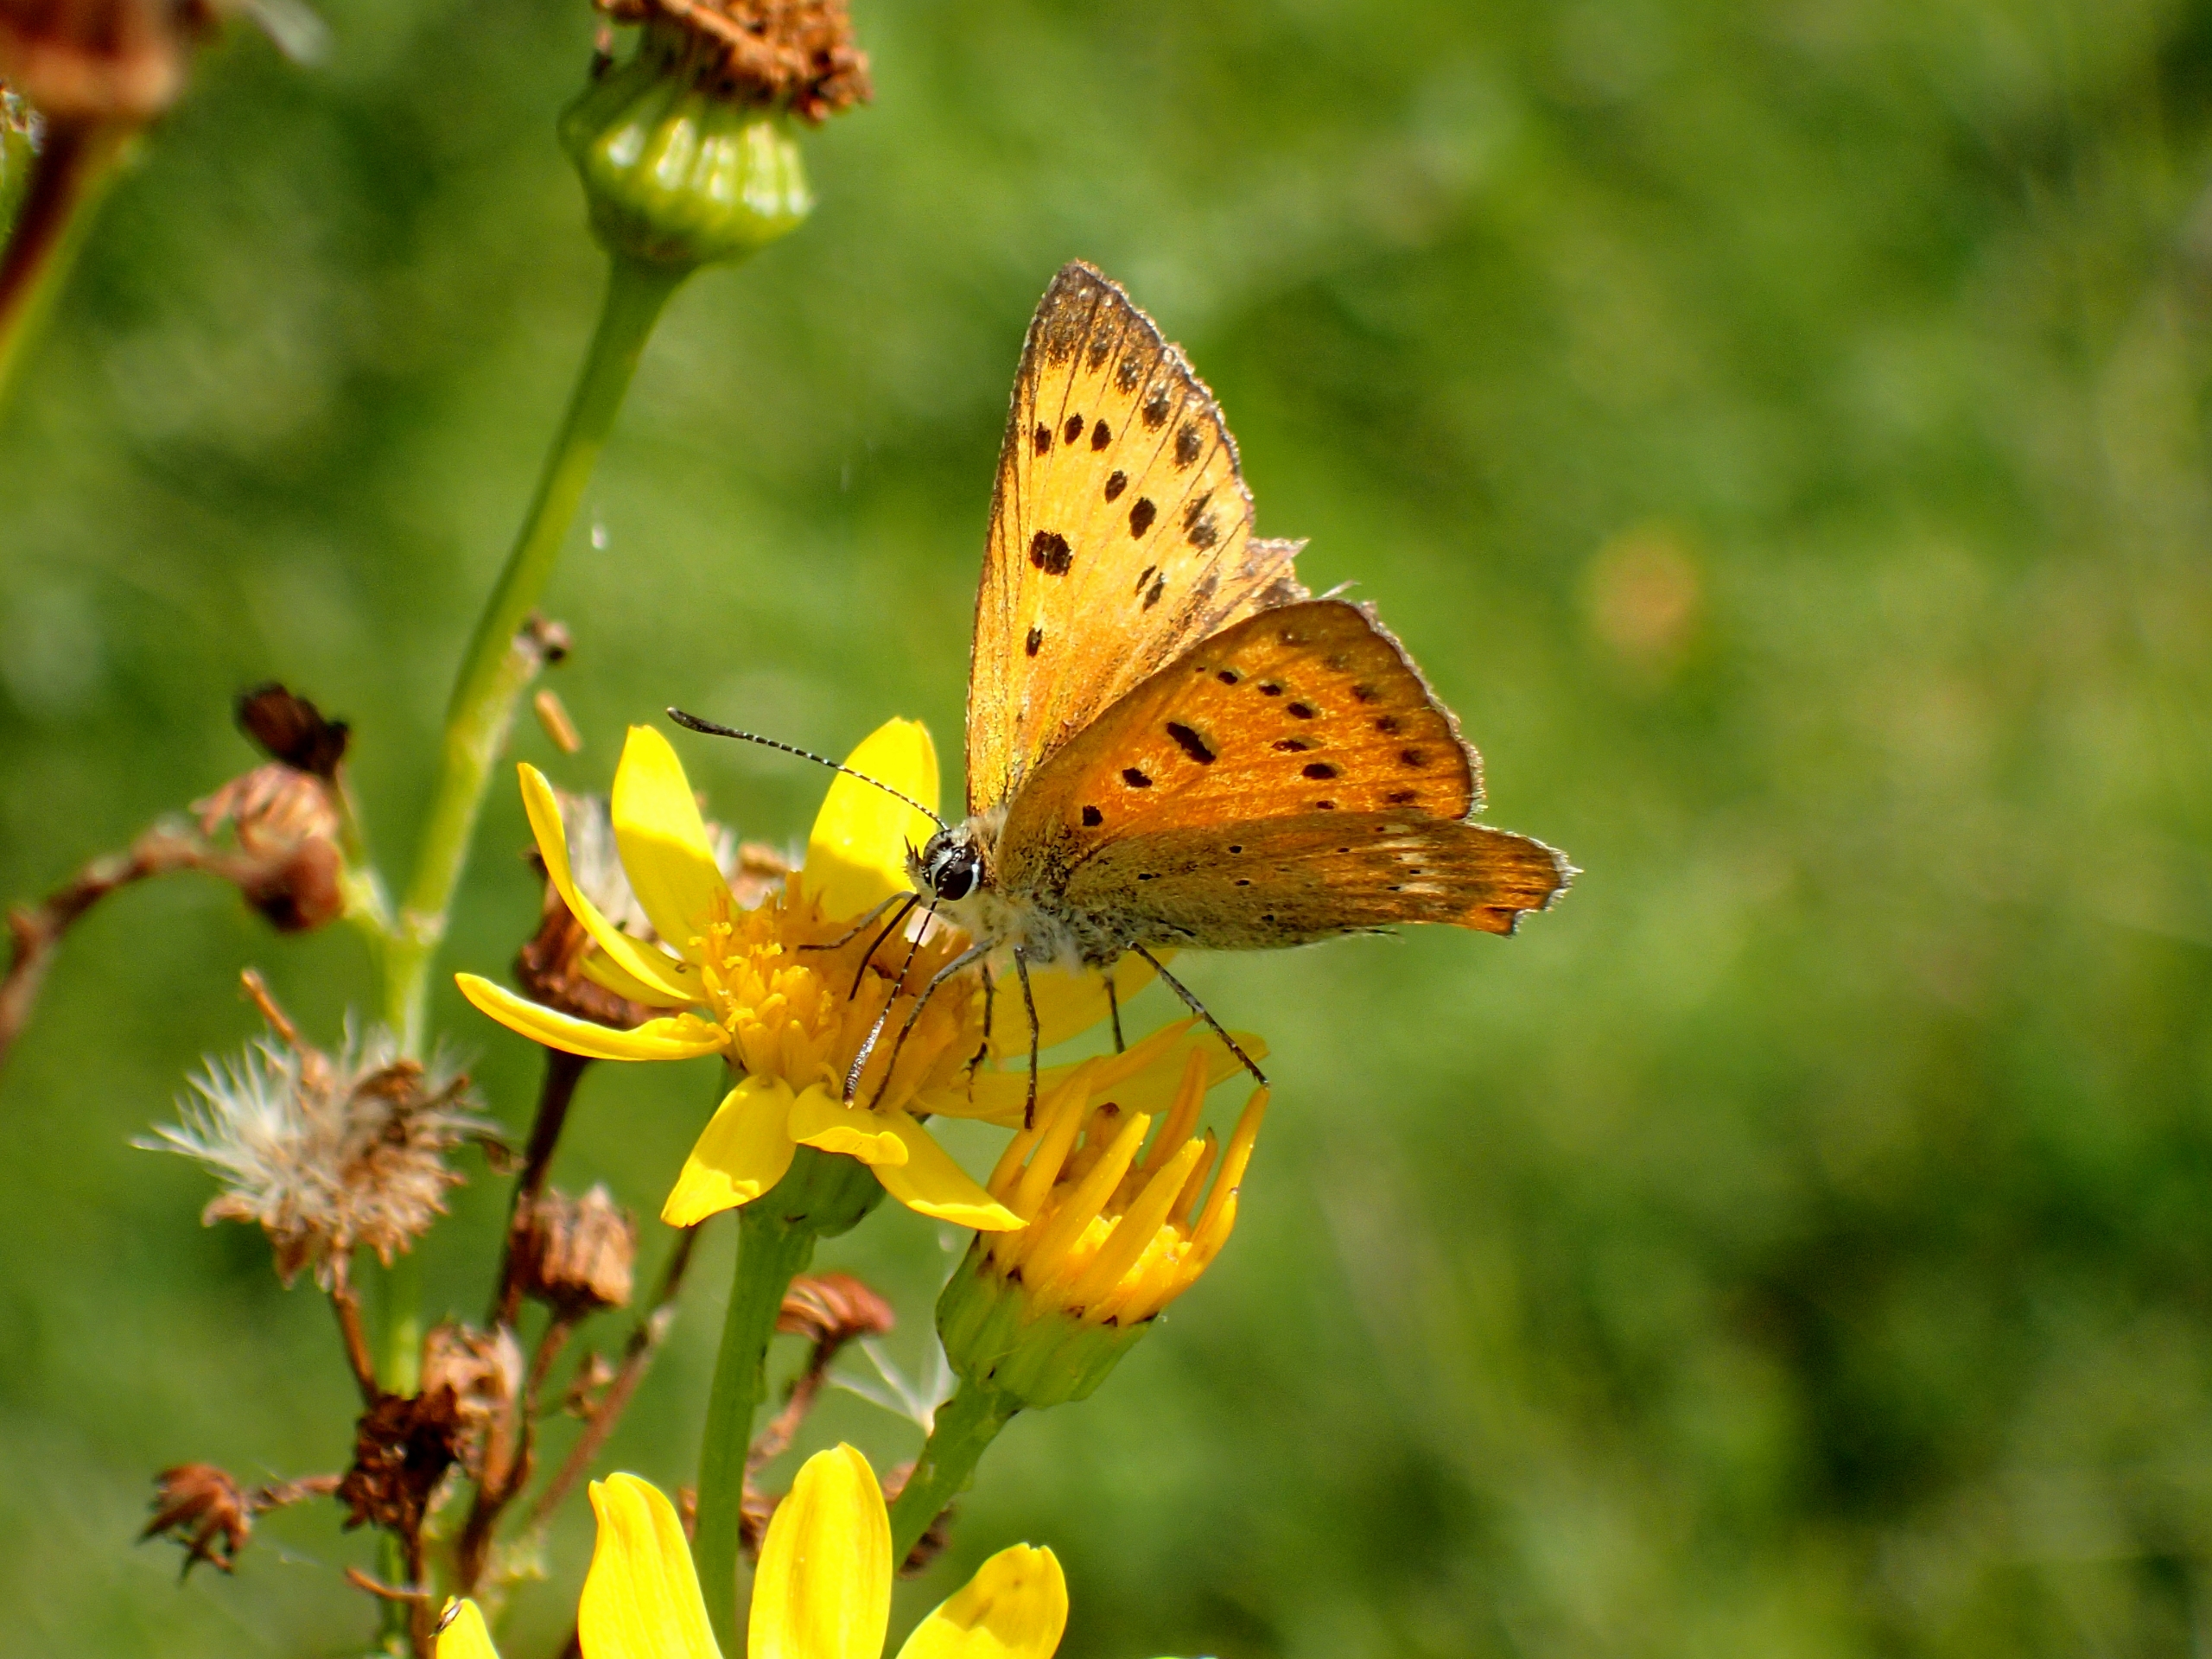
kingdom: Animalia
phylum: Arthropoda
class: Insecta
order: Lepidoptera
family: Lycaenidae
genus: Lycaena
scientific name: Lycaena virgaureae
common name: Dukatsommerfugl
